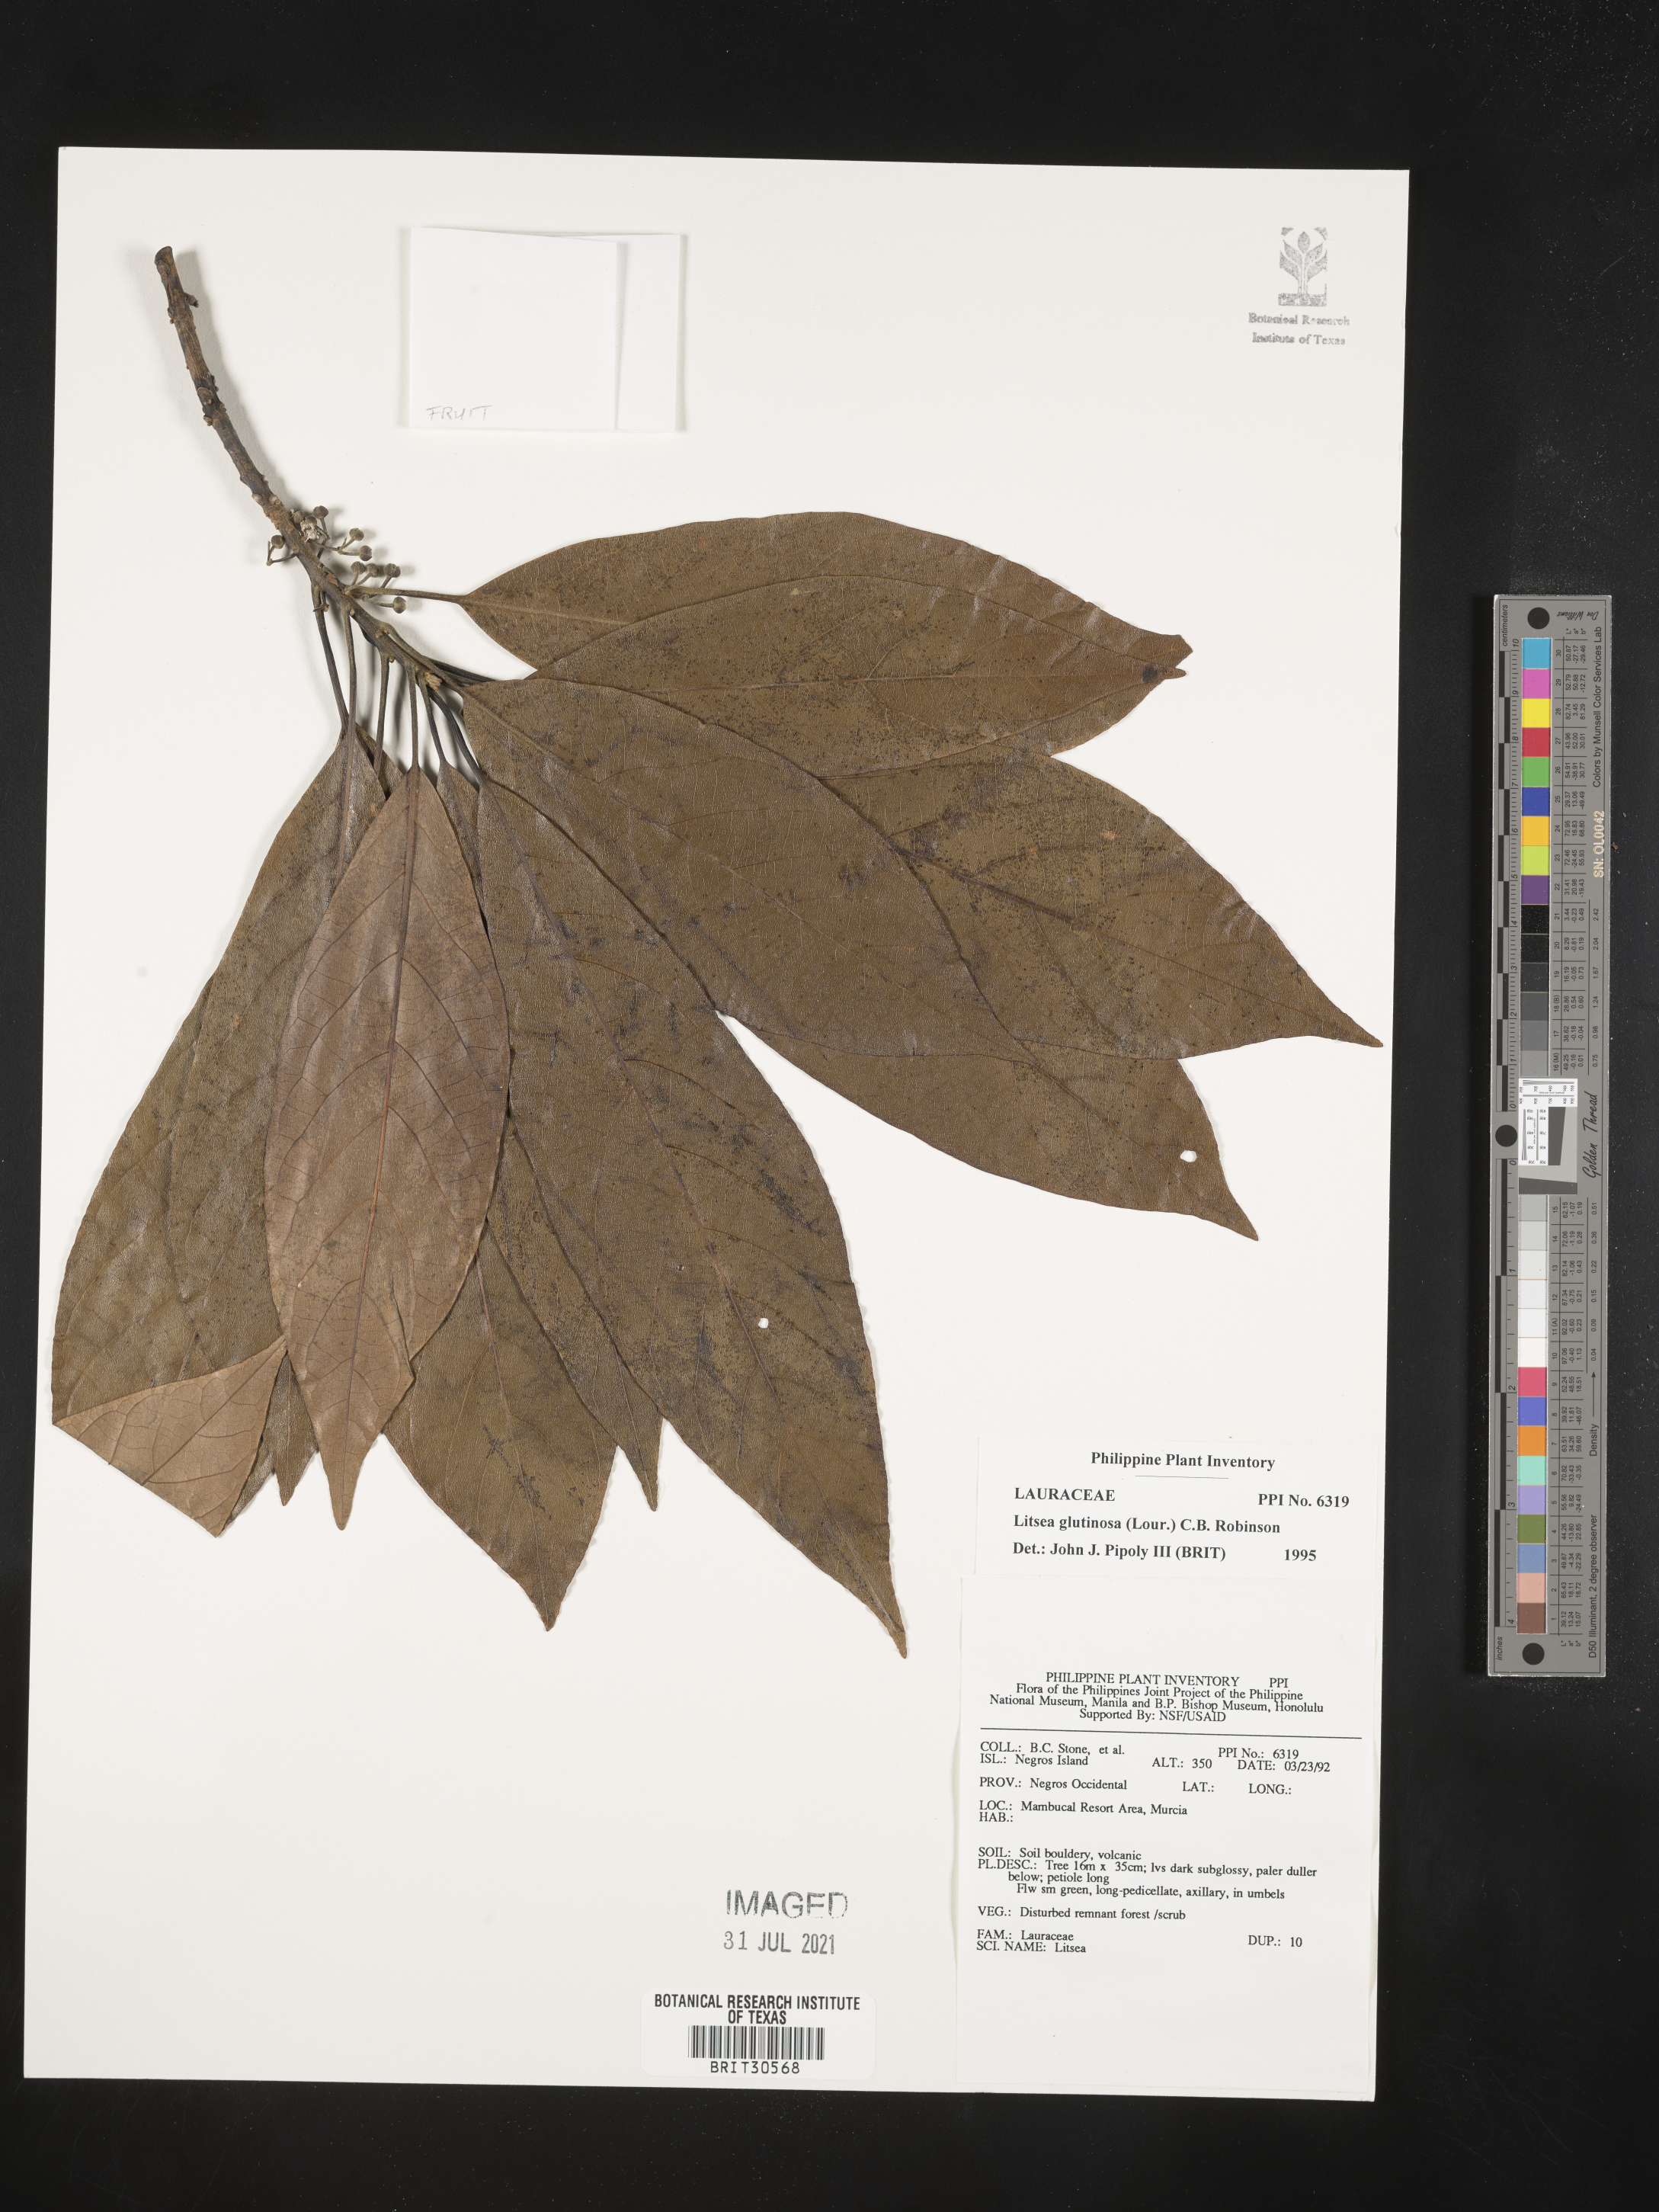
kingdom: Plantae
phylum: Tracheophyta
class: Magnoliopsida
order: Laurales
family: Lauraceae
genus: Litsea
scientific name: Litsea glutinosa
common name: Indian-laurel
